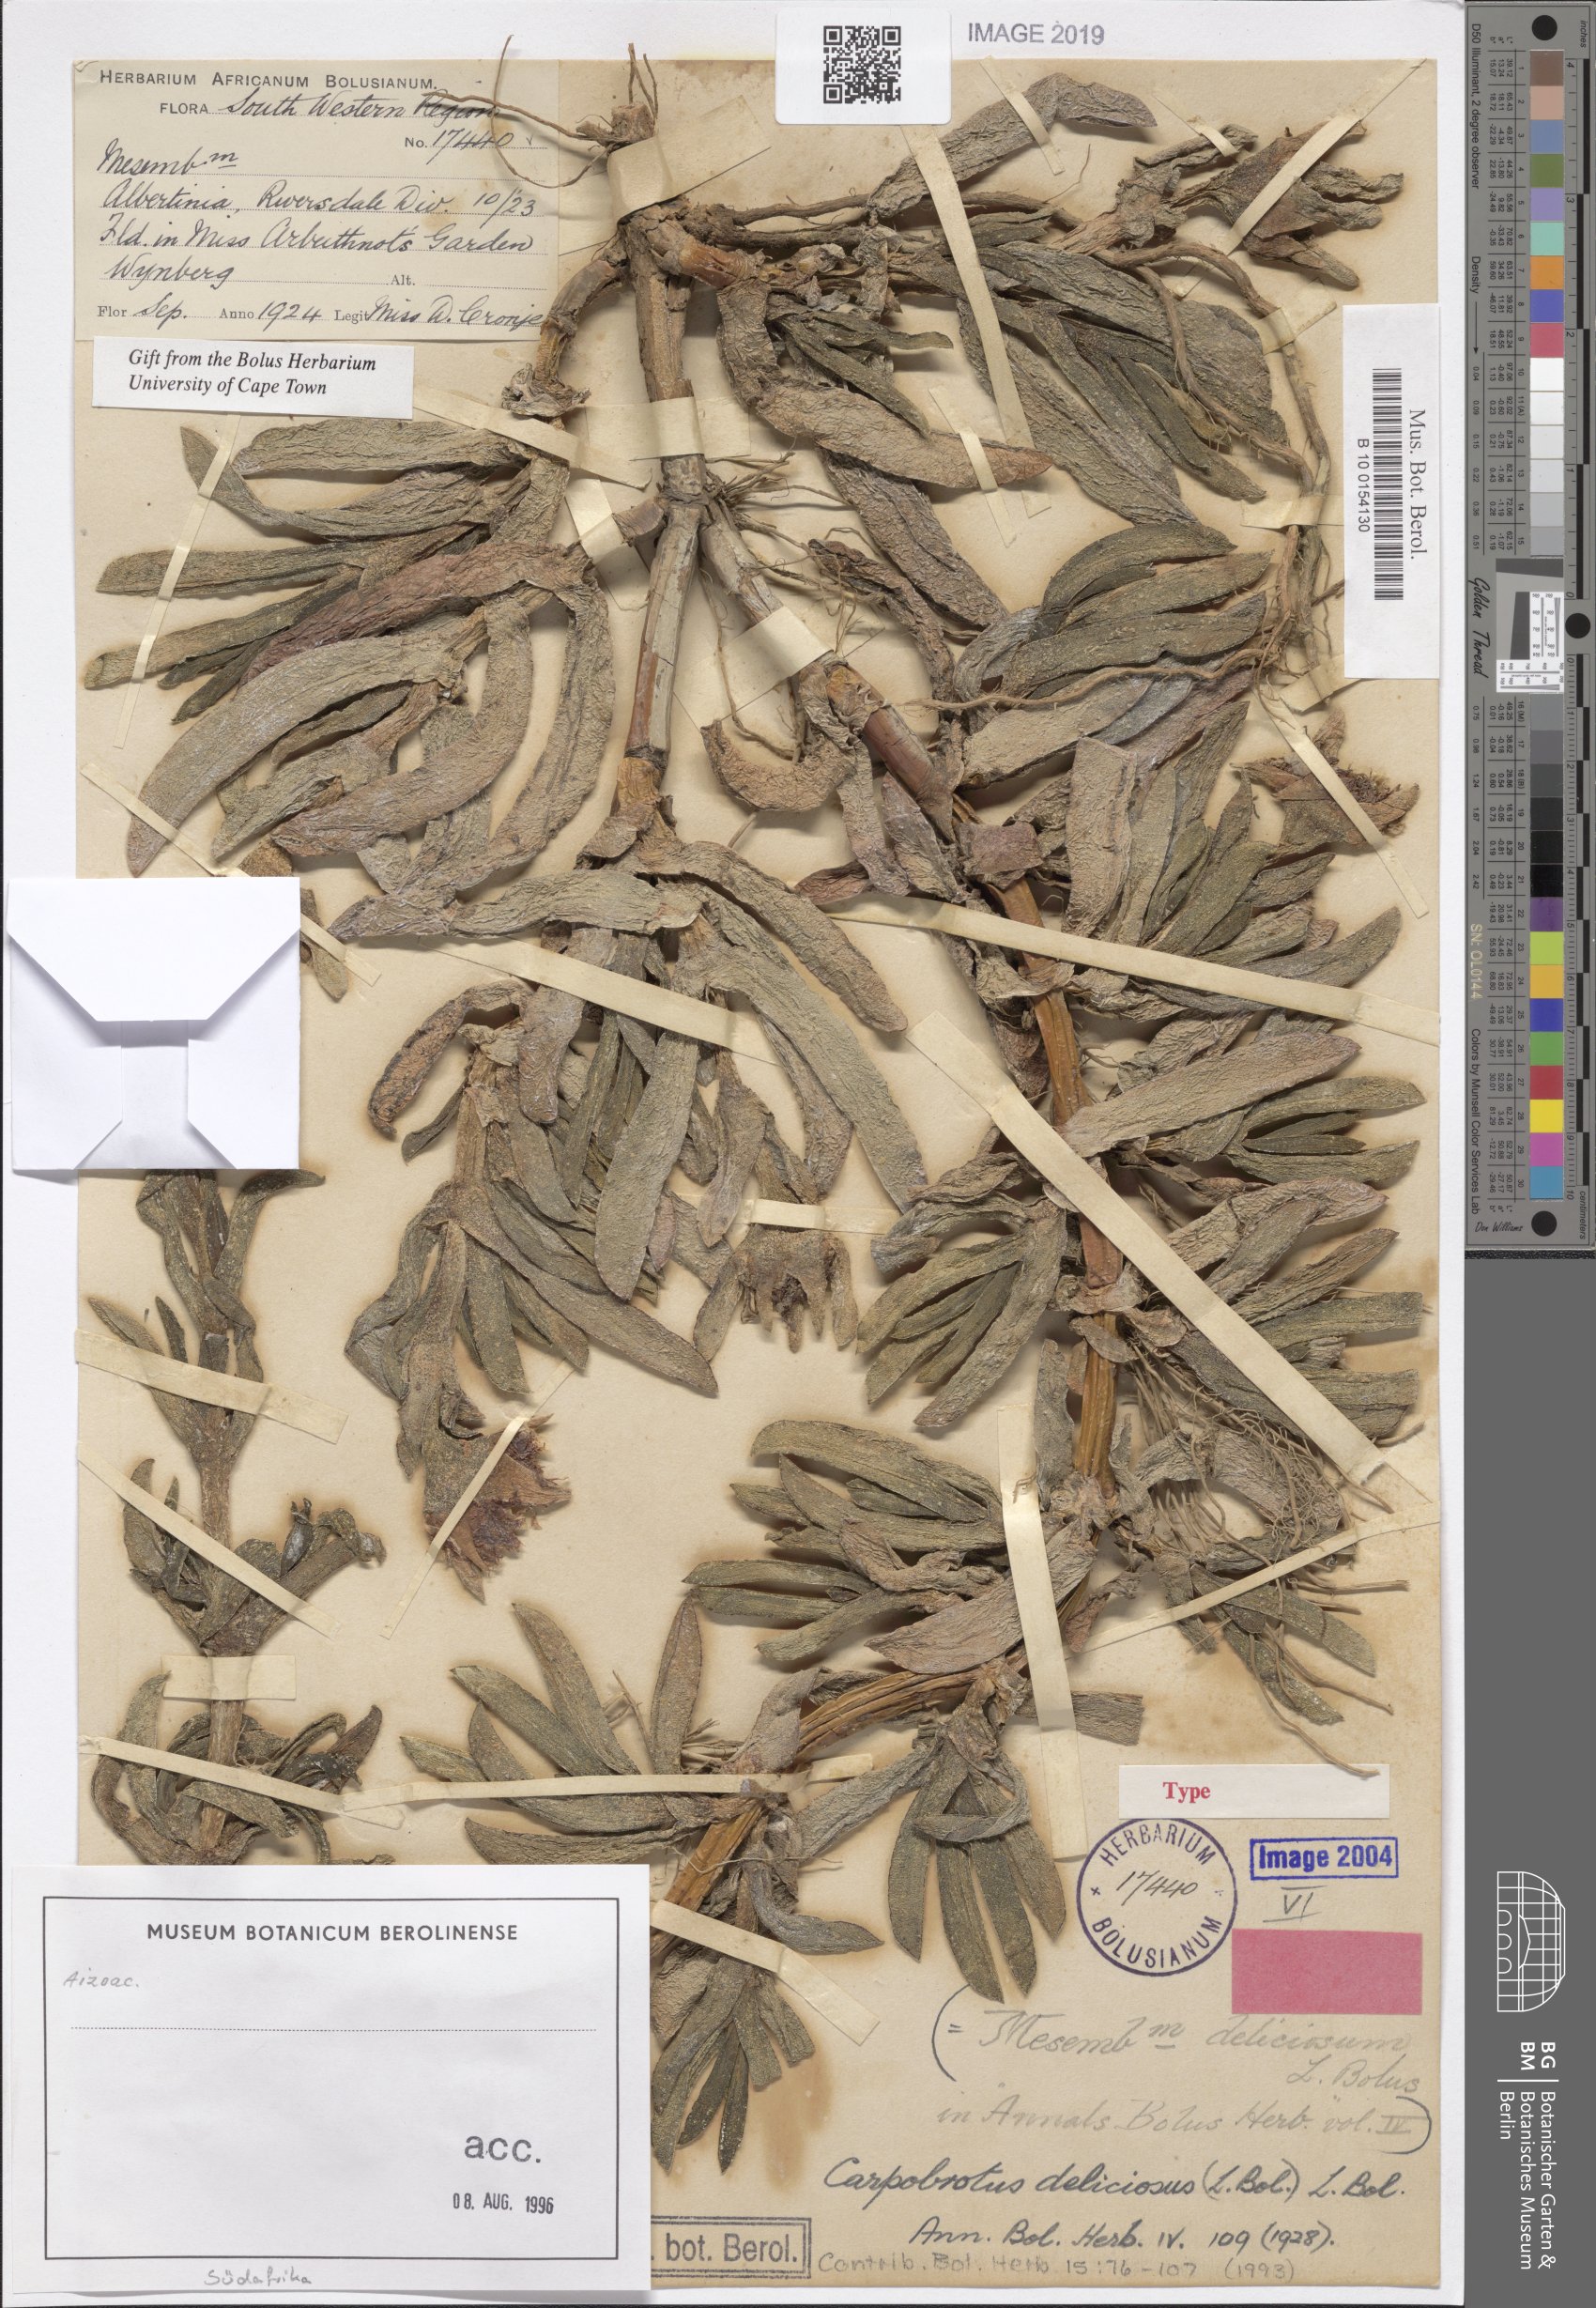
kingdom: Plantae
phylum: Tracheophyta
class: Magnoliopsida
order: Caryophyllales
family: Aizoaceae
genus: Carpobrotus
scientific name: Carpobrotus deliciosus
